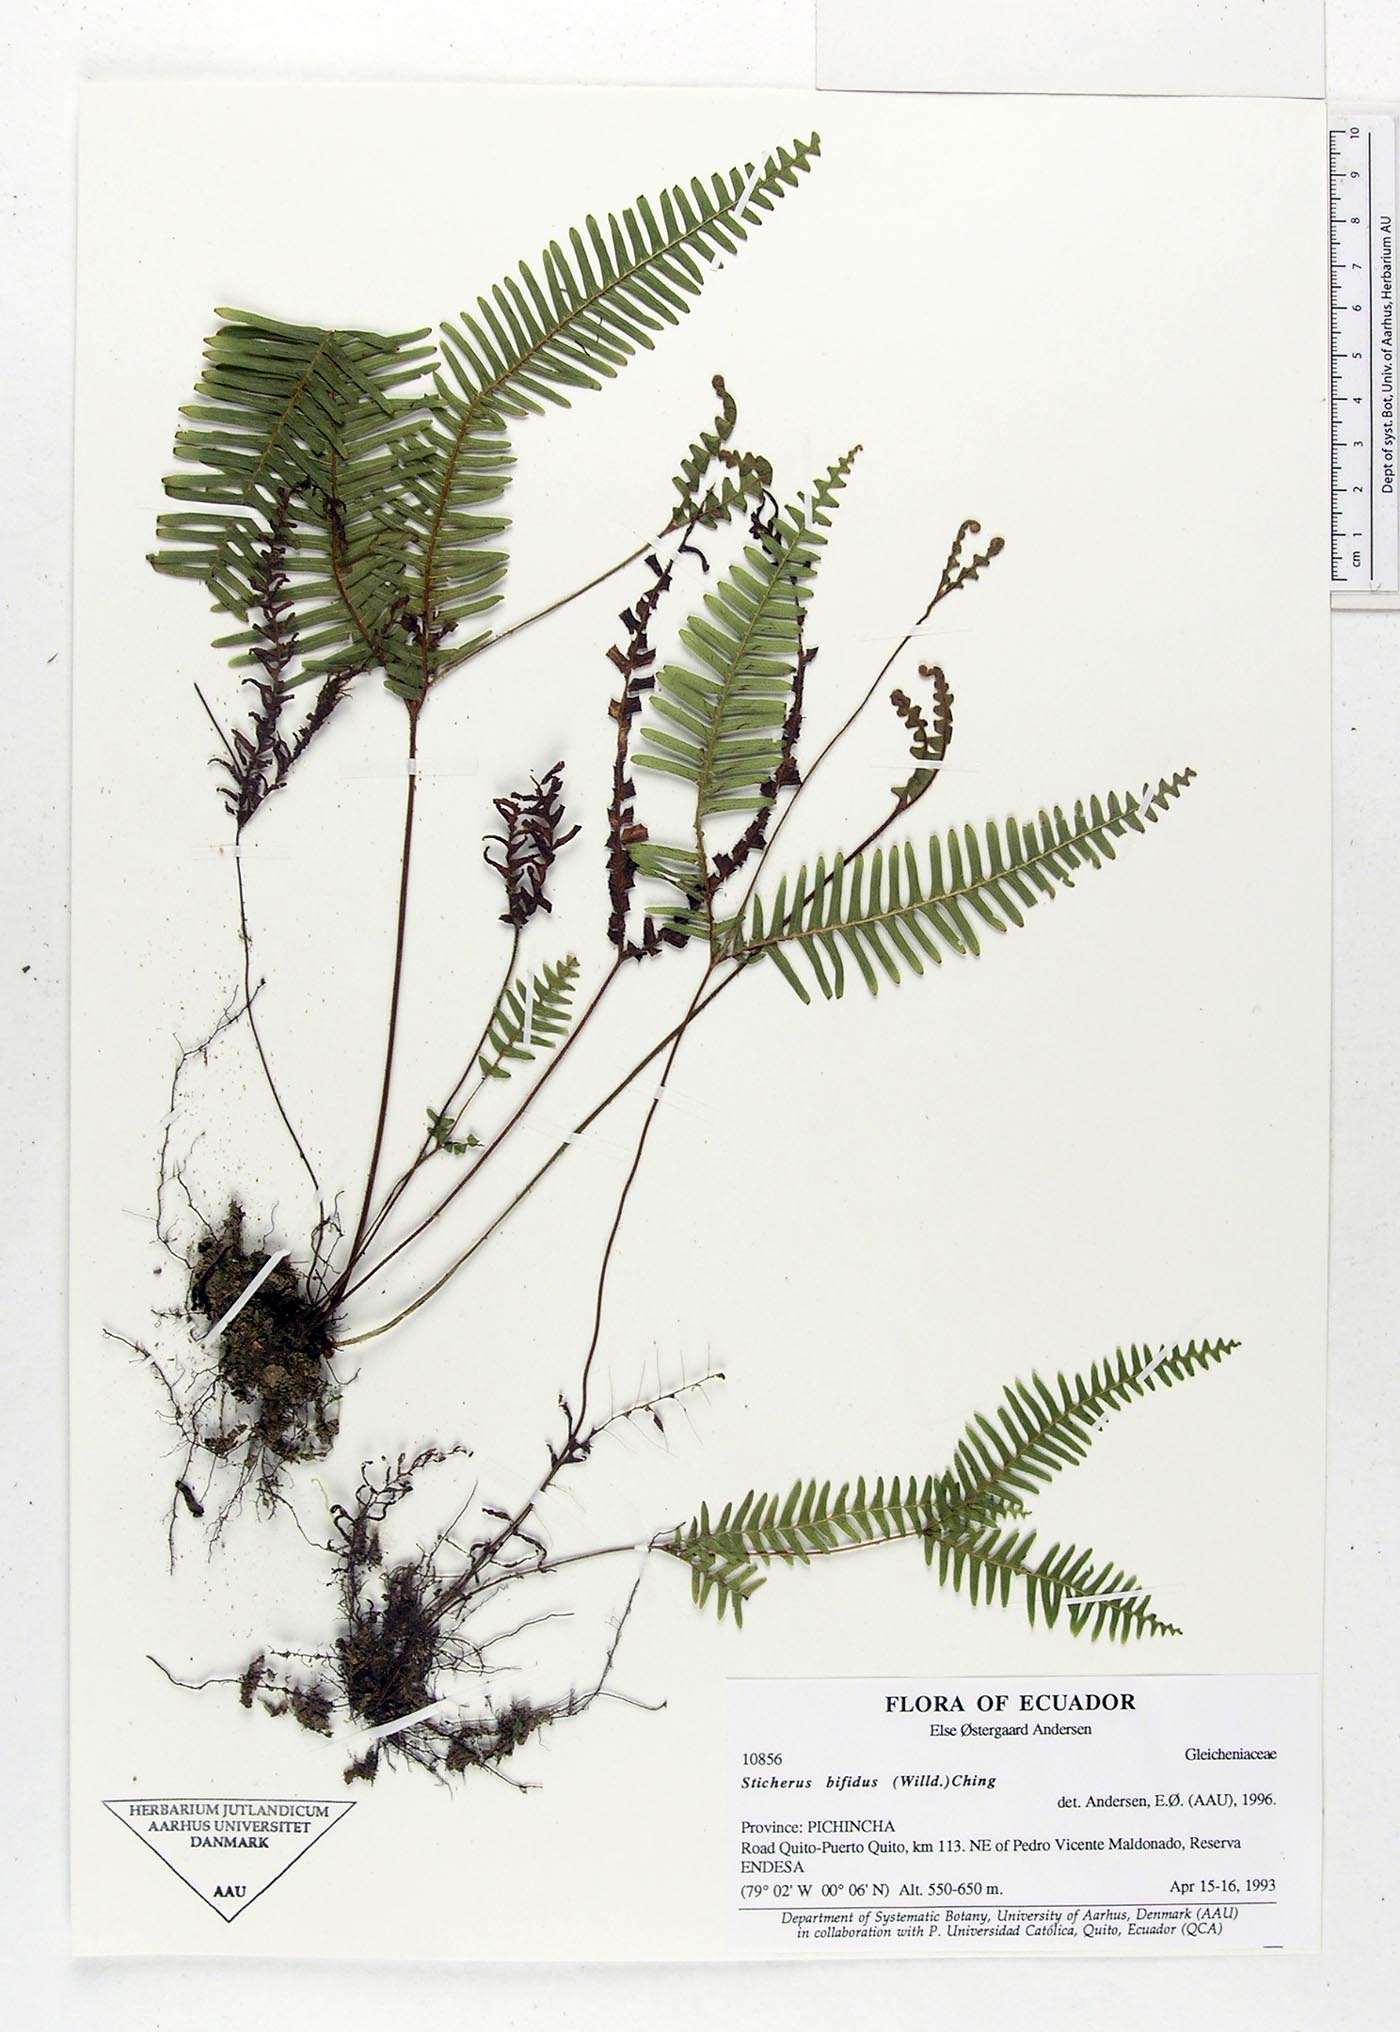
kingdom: Plantae
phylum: Tracheophyta
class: Polypodiopsida
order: Gleicheniales
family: Gleicheniaceae
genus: Sticherus
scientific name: Sticherus bifidus
